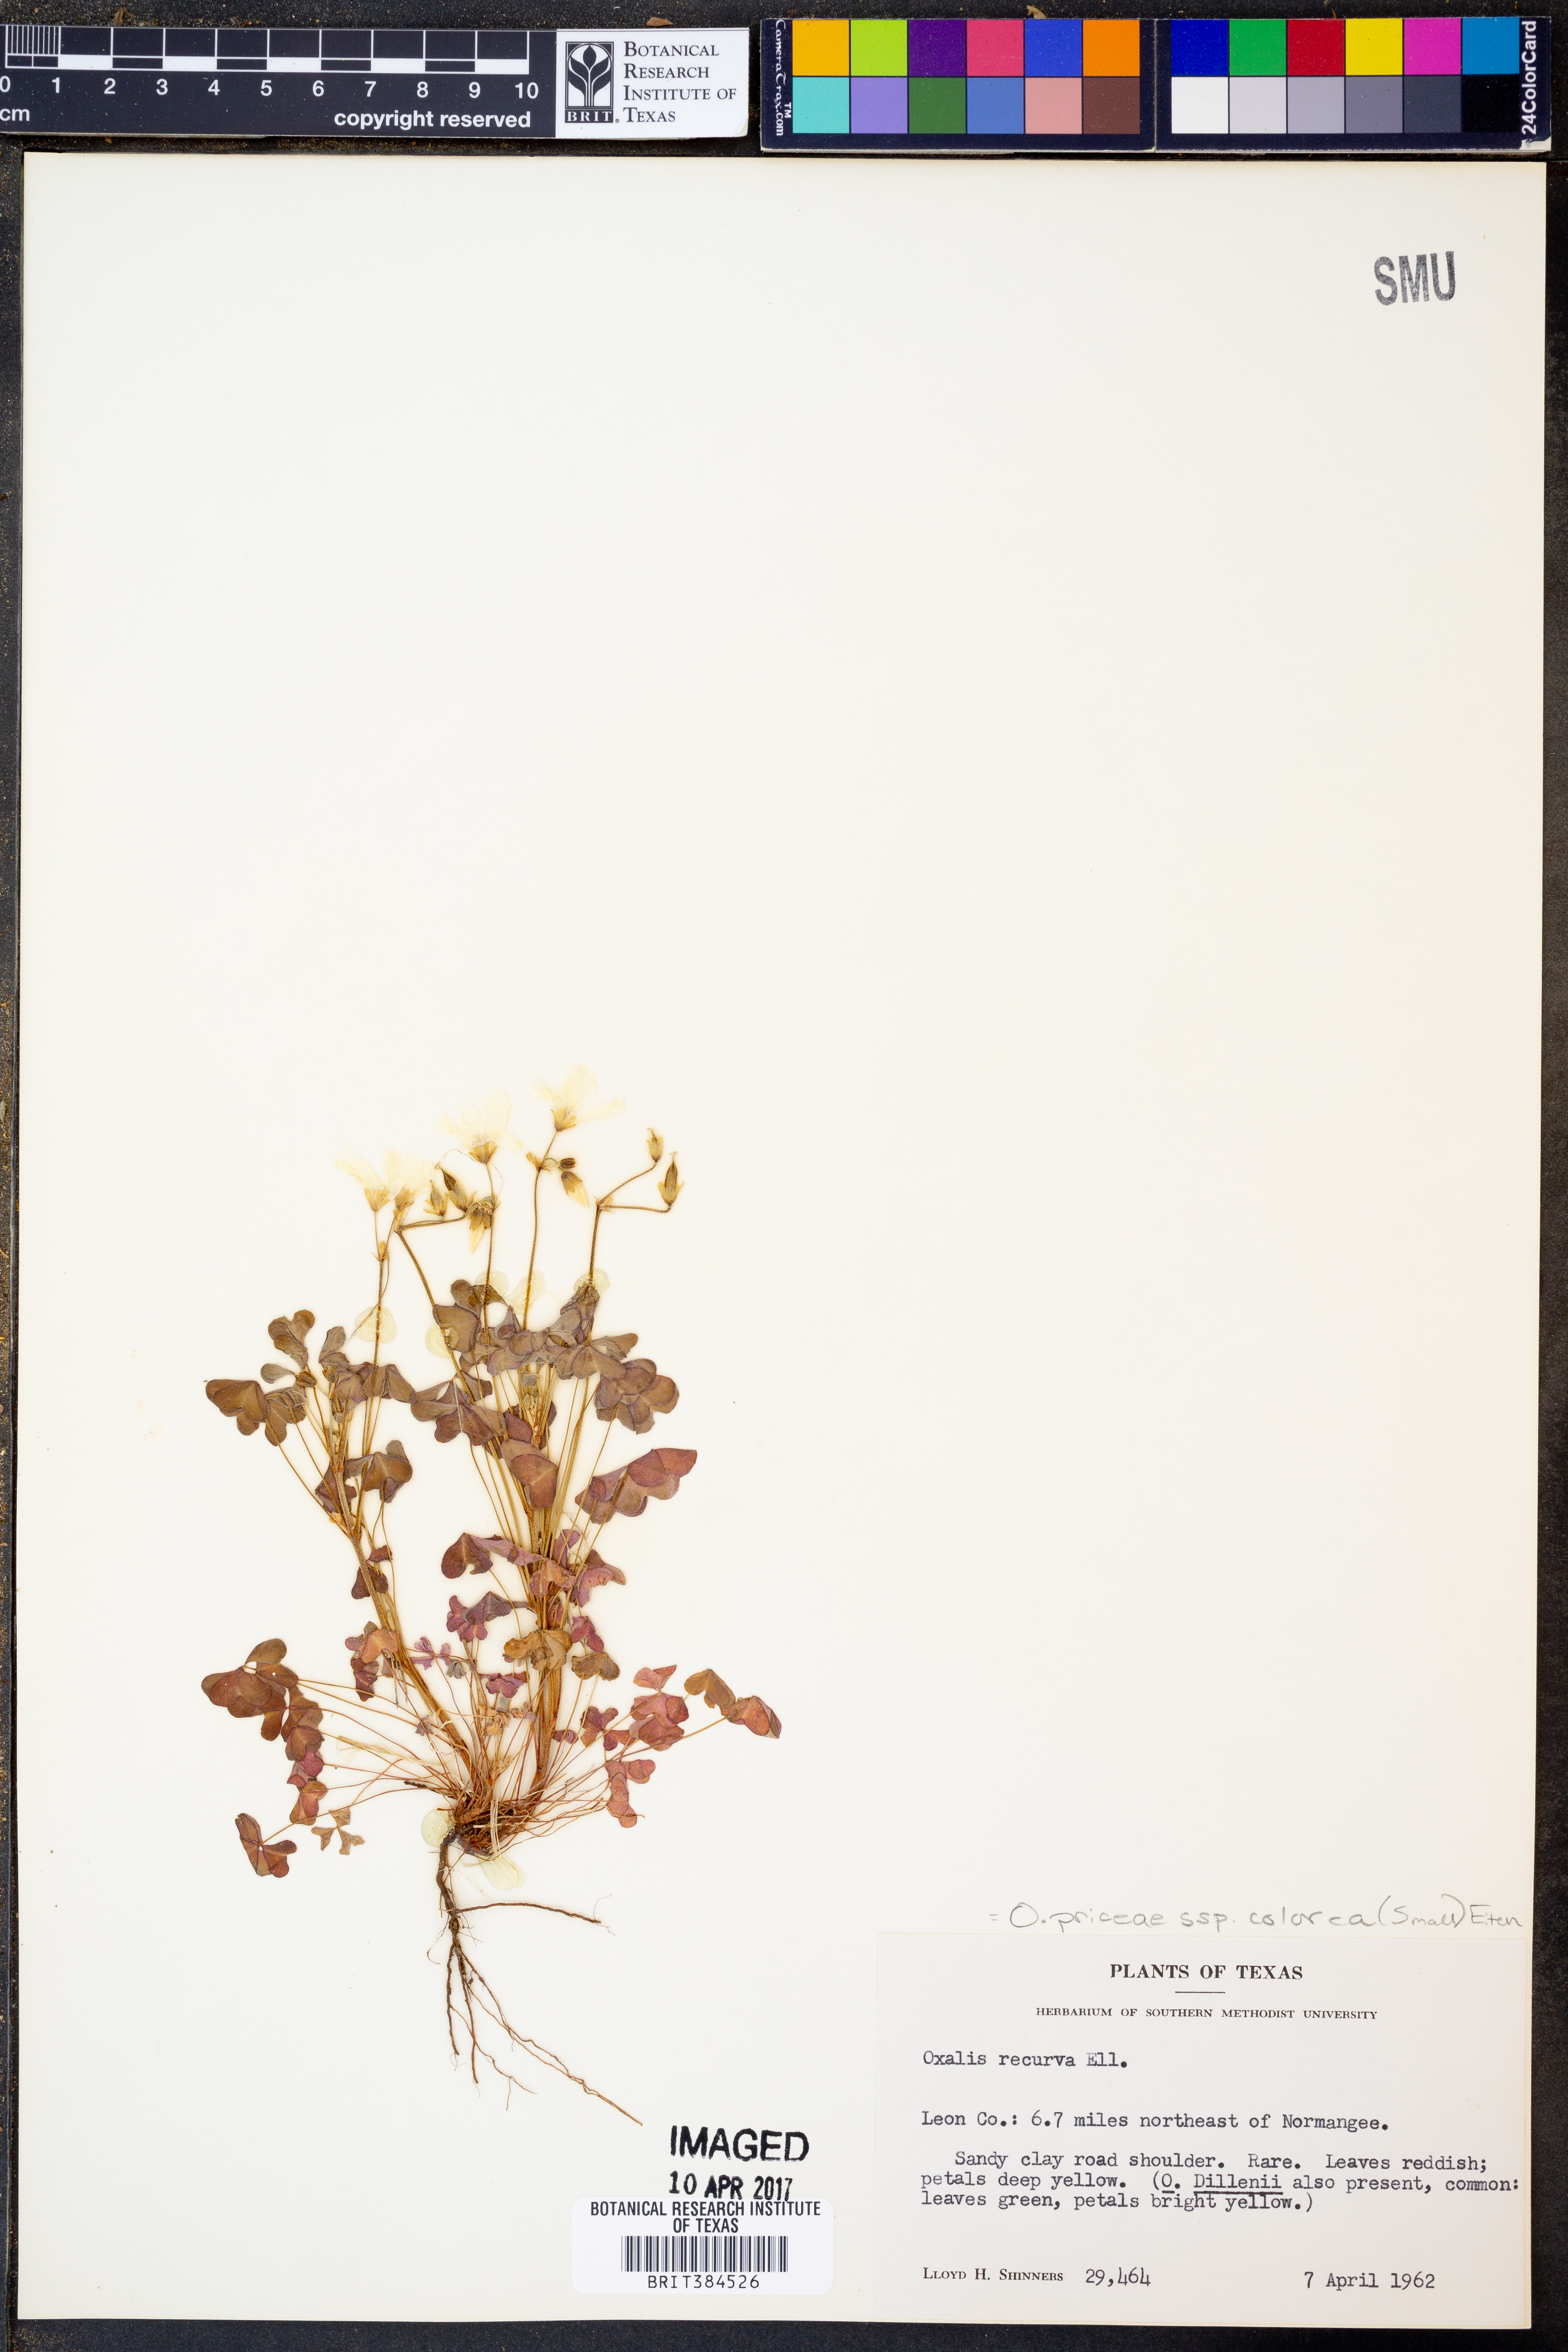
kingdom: Plantae
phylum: Tracheophyta
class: Magnoliopsida
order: Oxalidales
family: Oxalidaceae
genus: Oxalis
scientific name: Oxalis colorea
